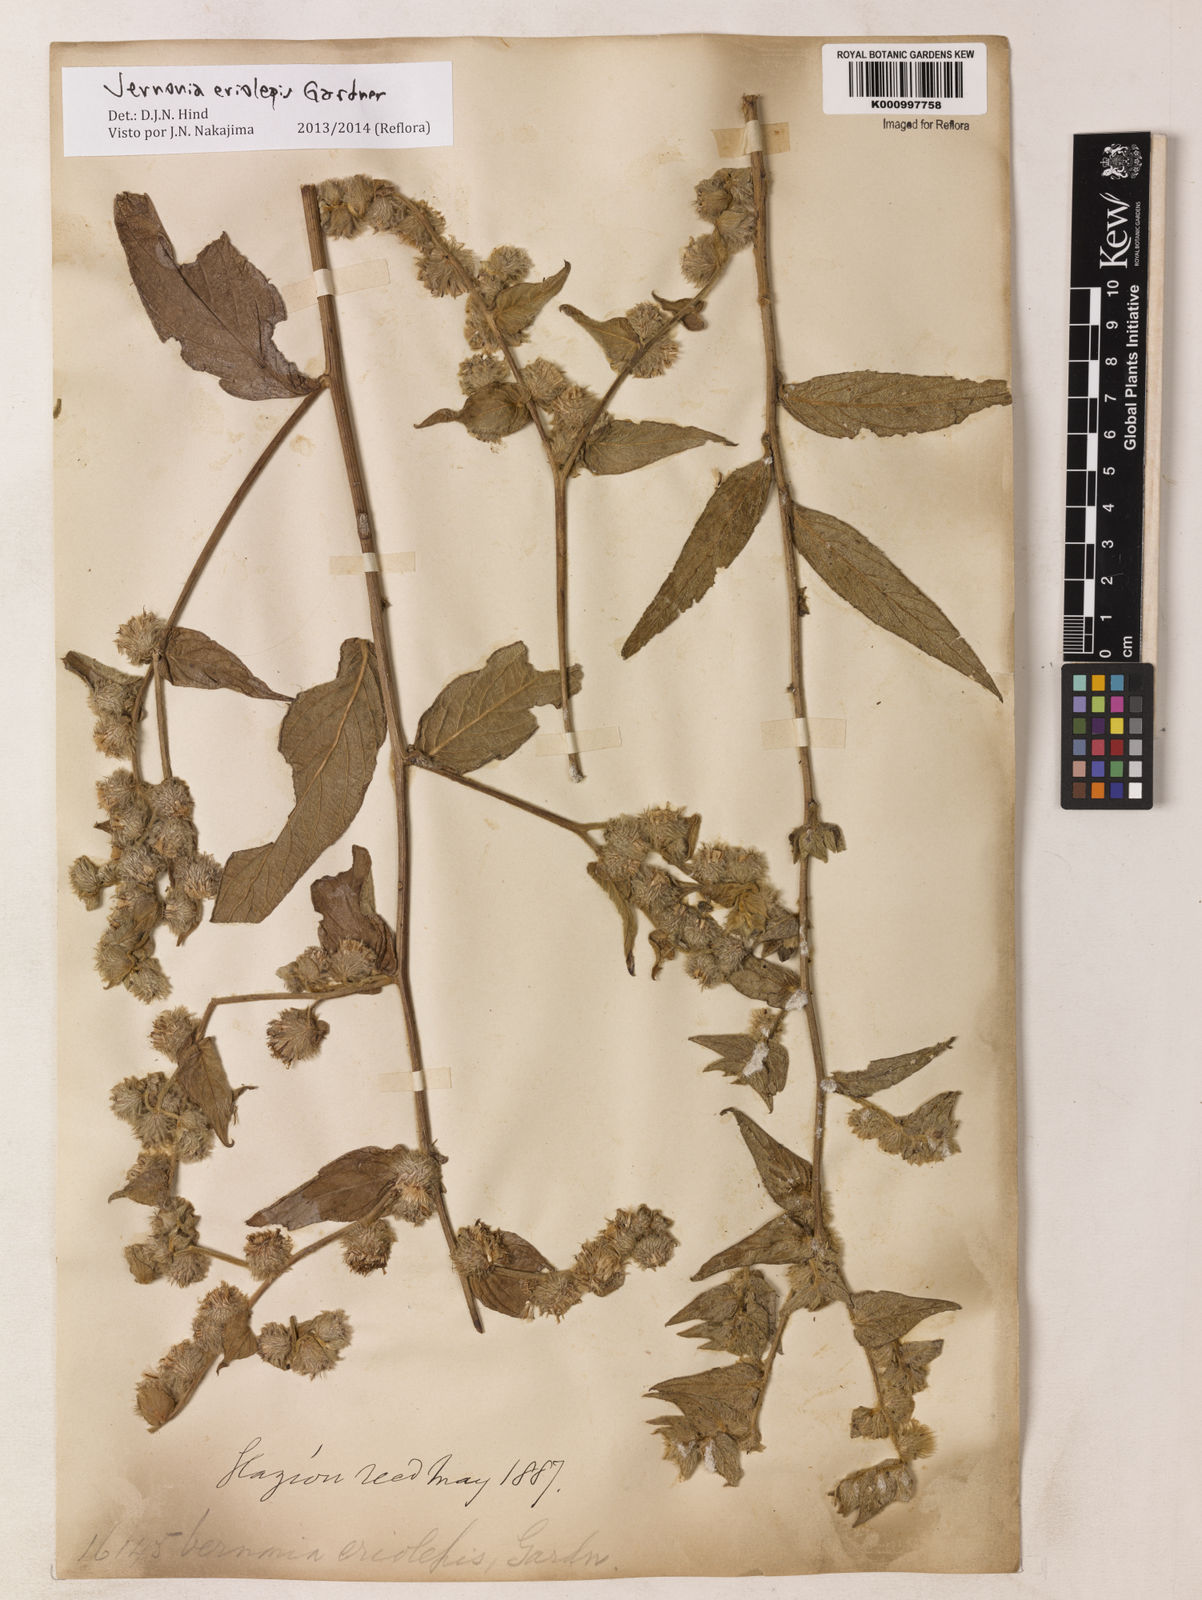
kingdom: Plantae
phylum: Tracheophyta
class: Magnoliopsida
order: Asterales
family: Asteraceae
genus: Lepidaploa
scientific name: Lepidaploa eriolepis
